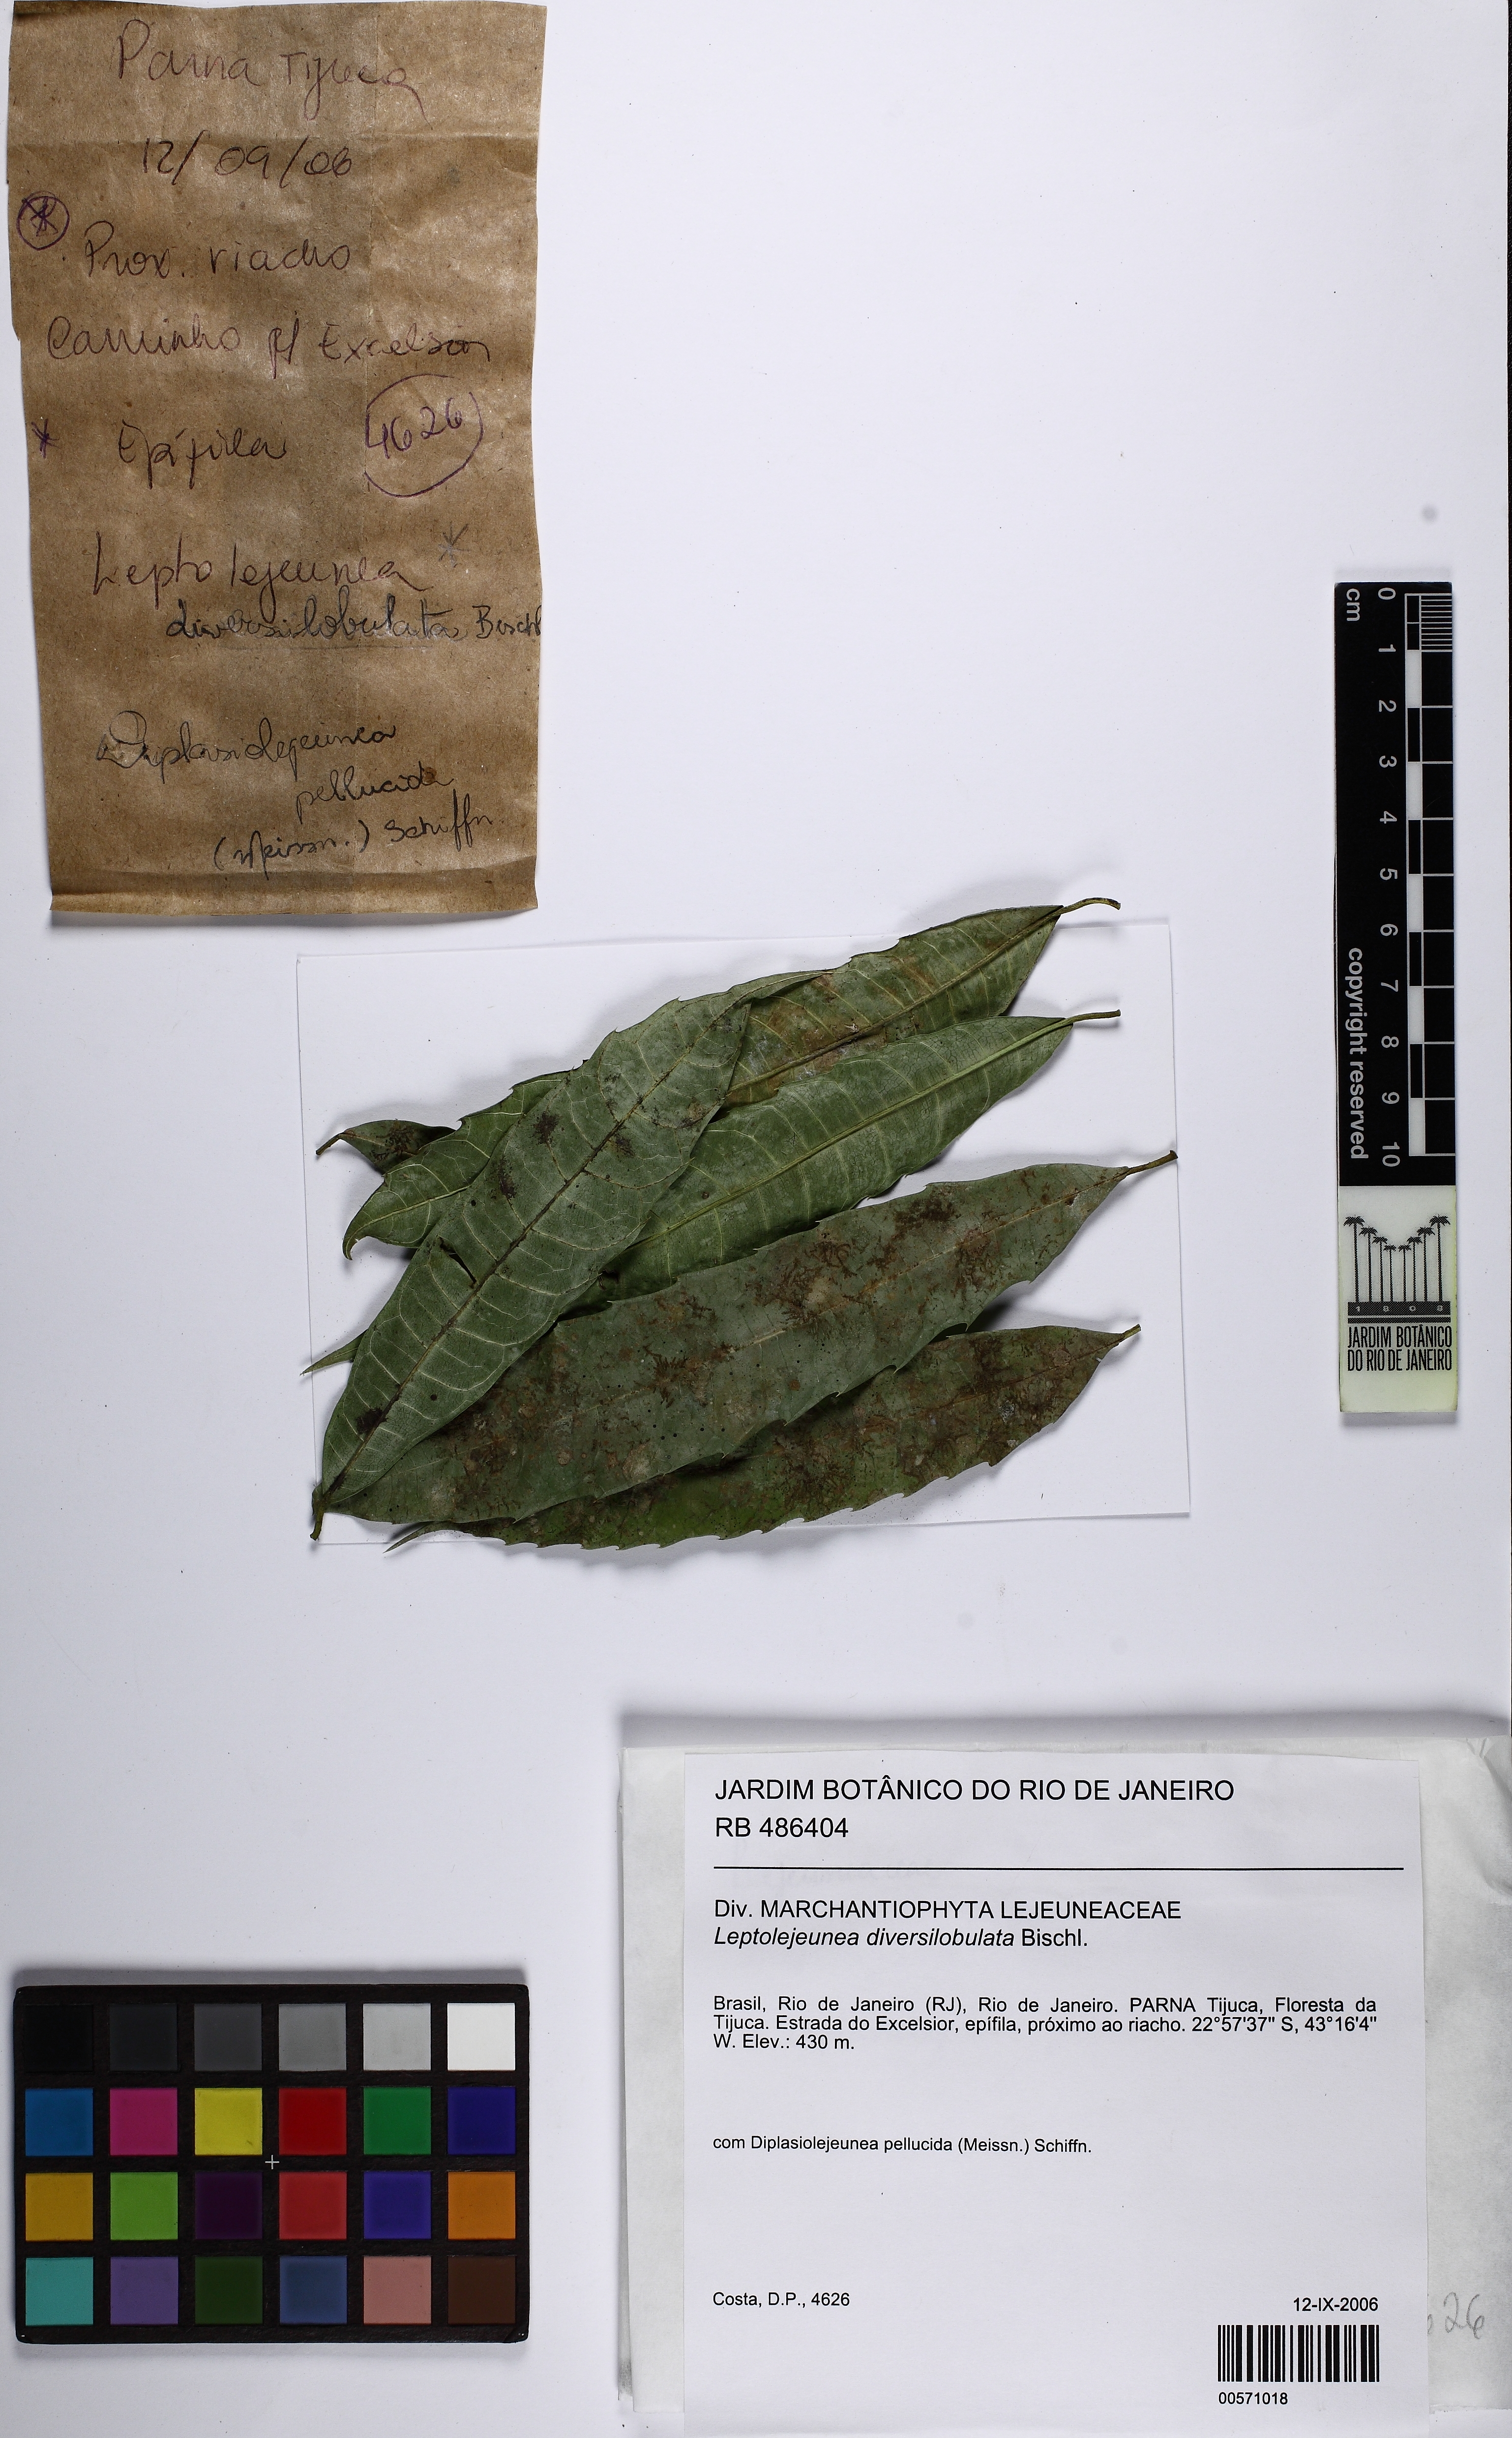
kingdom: Plantae
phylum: Marchantiophyta
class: Jungermanniopsida
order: Porellales
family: Lejeuneaceae
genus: Leptolejeunea
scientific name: Leptolejeunea diversilobulata
